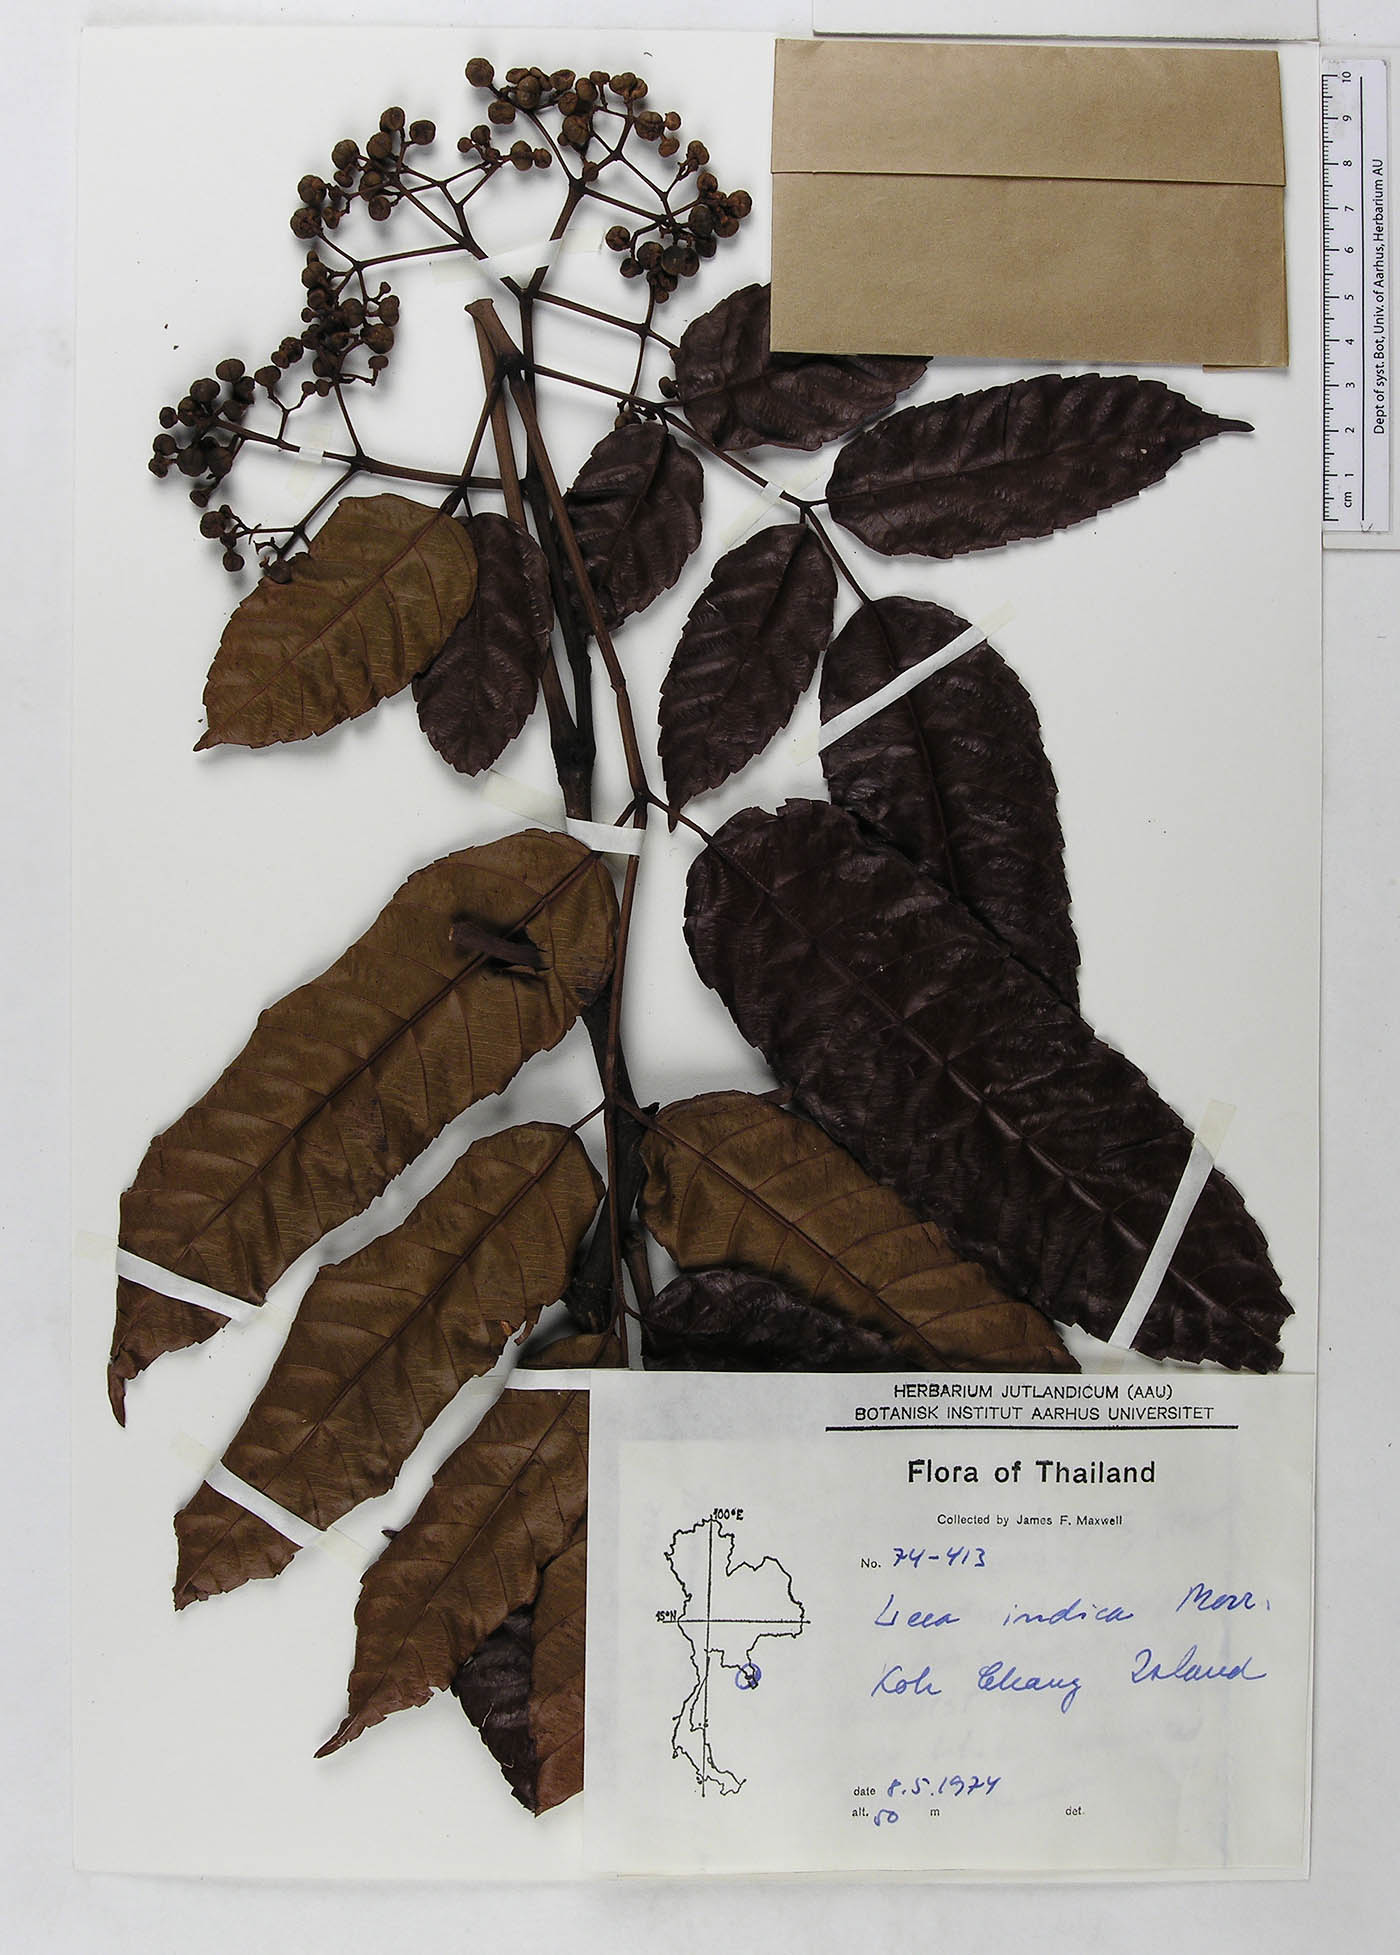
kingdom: Plantae
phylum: Tracheophyta
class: Magnoliopsida
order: Vitales
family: Vitaceae
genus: Leea
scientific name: Leea indica
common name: Bandicoot-berry
